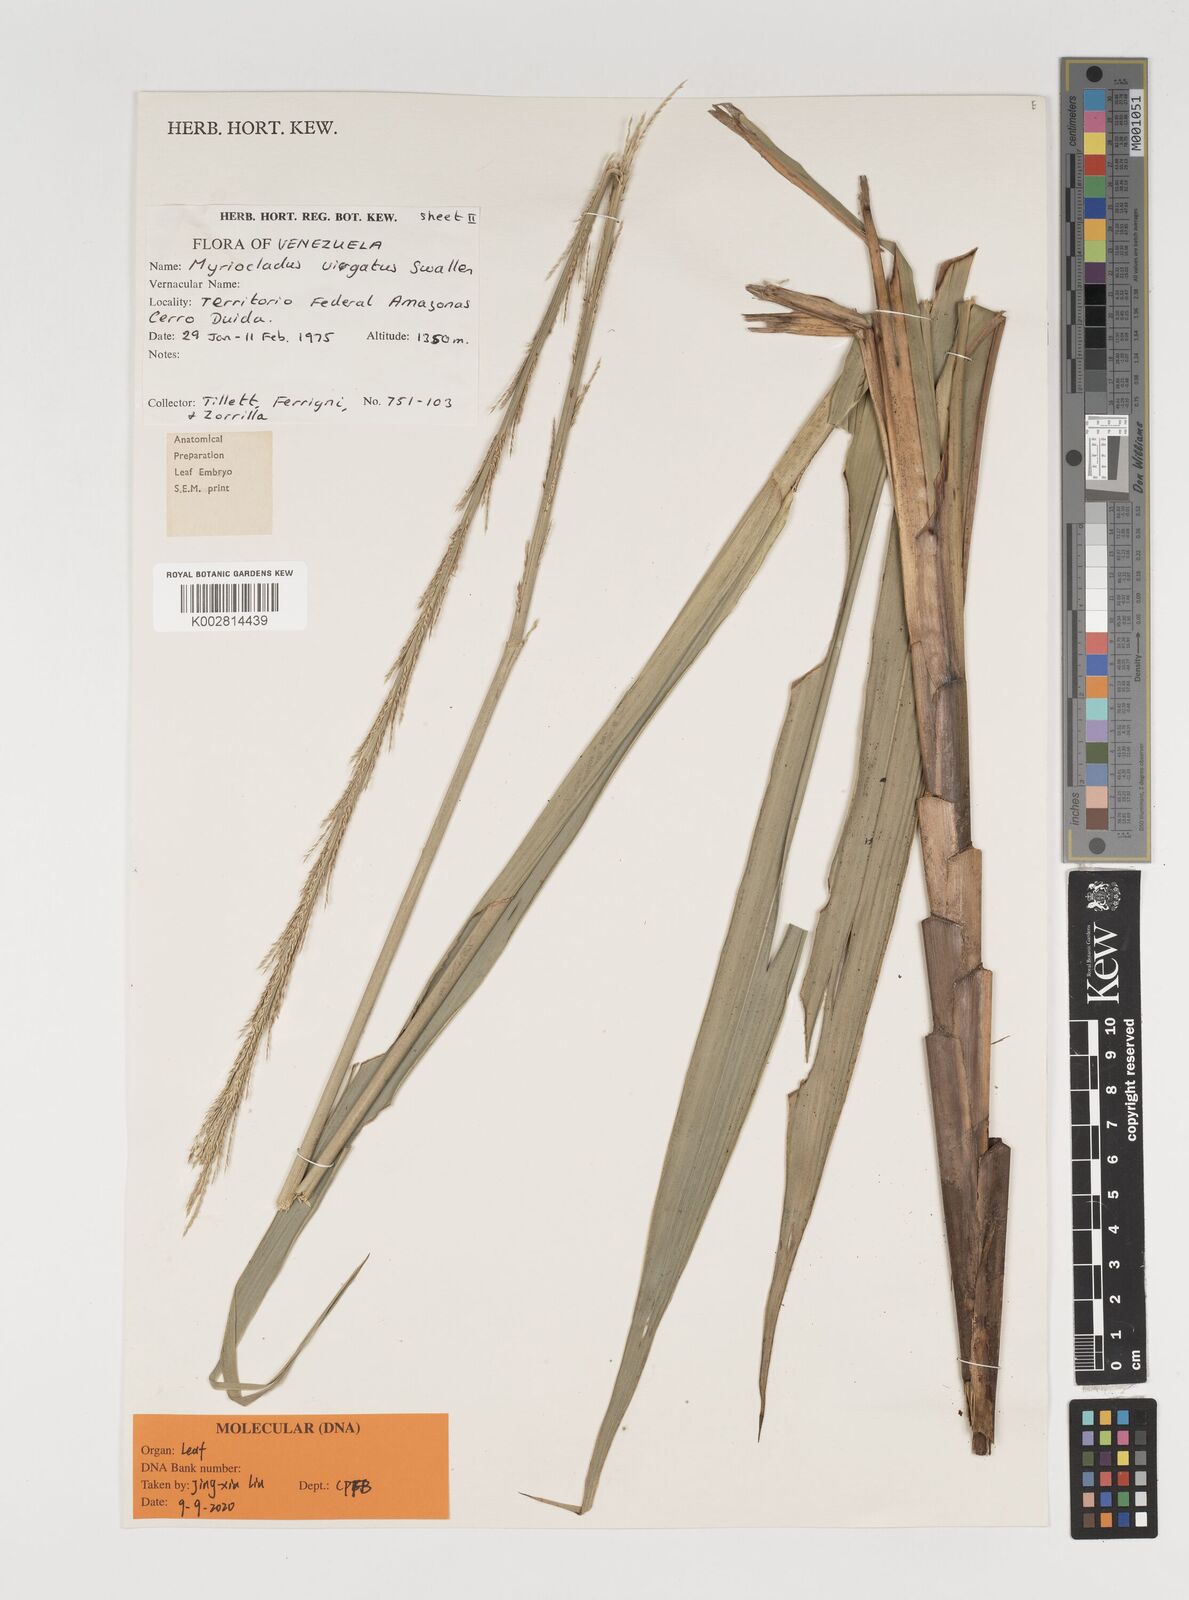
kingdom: Plantae
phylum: Tracheophyta
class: Liliopsida
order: Poales
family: Poaceae
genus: Myriocladus
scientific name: Myriocladus virgatus
